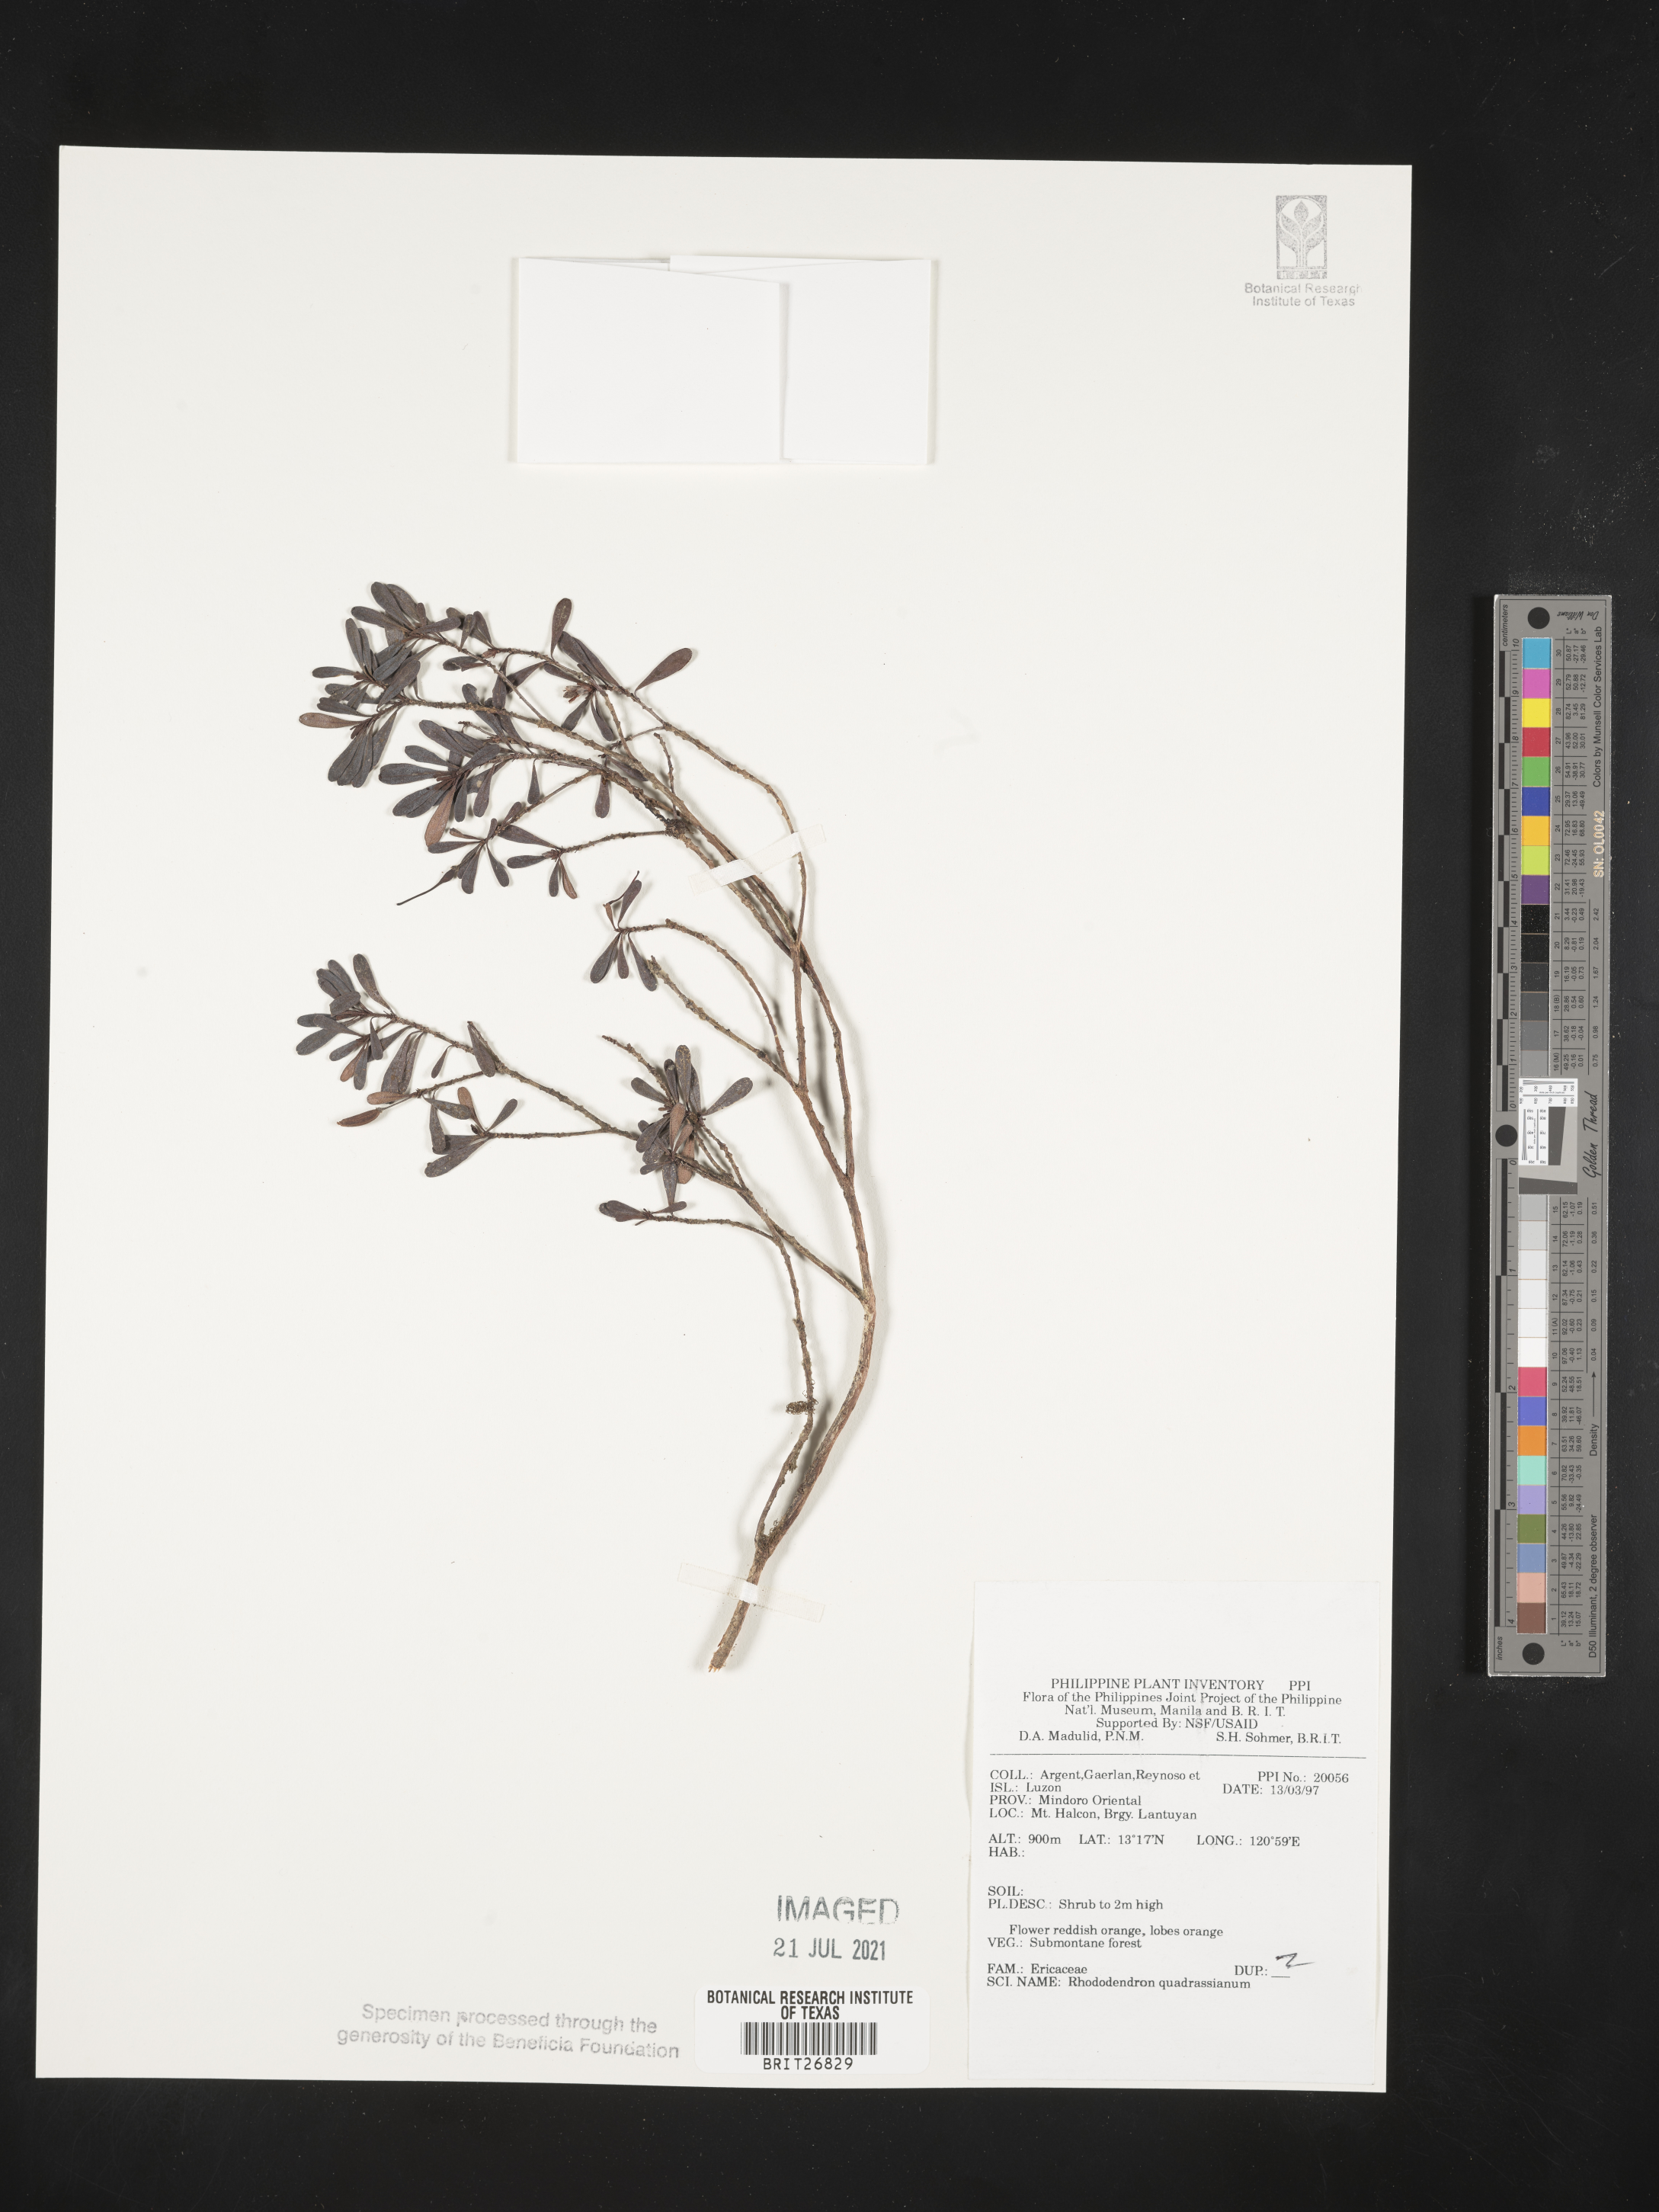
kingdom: Plantae
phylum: Tracheophyta
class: Magnoliopsida
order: Ericales
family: Ericaceae
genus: Rhododendron
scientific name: Rhododendron quadrasianum
